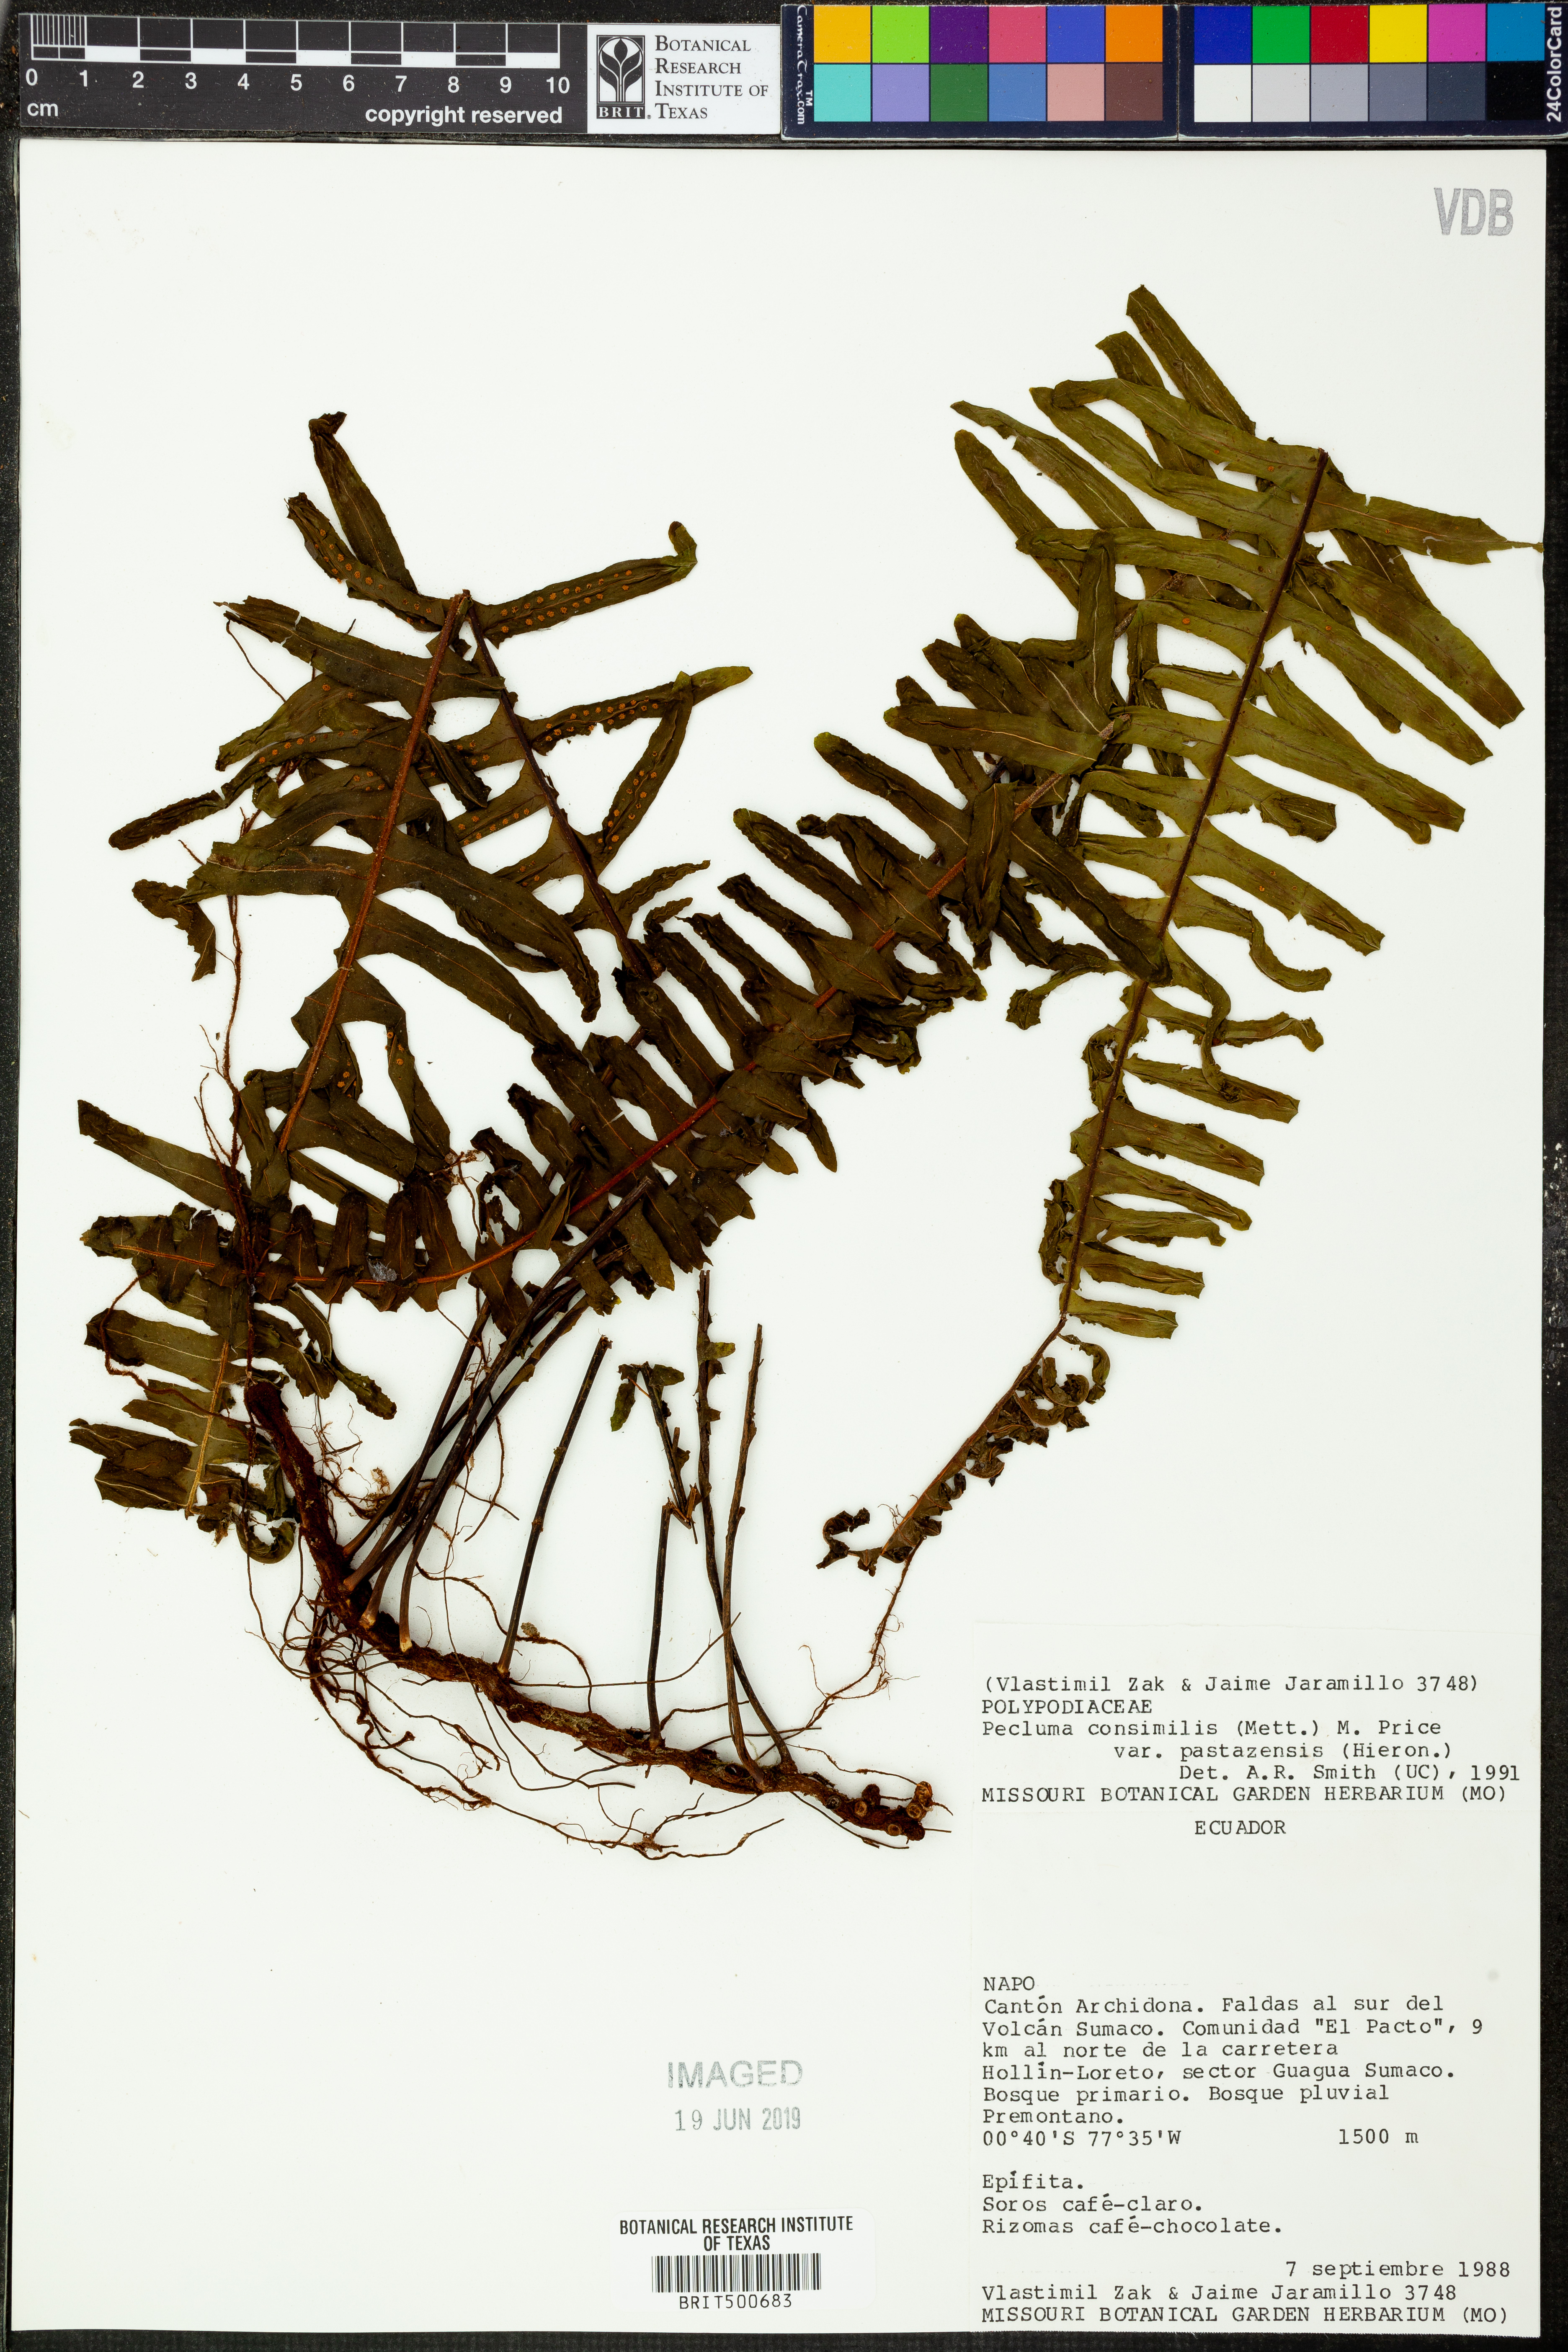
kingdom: Plantae
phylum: Tracheophyta
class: Polypodiopsida
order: Polypodiales
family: Polypodiaceae
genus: Pecluma
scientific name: Pecluma pastazensis
